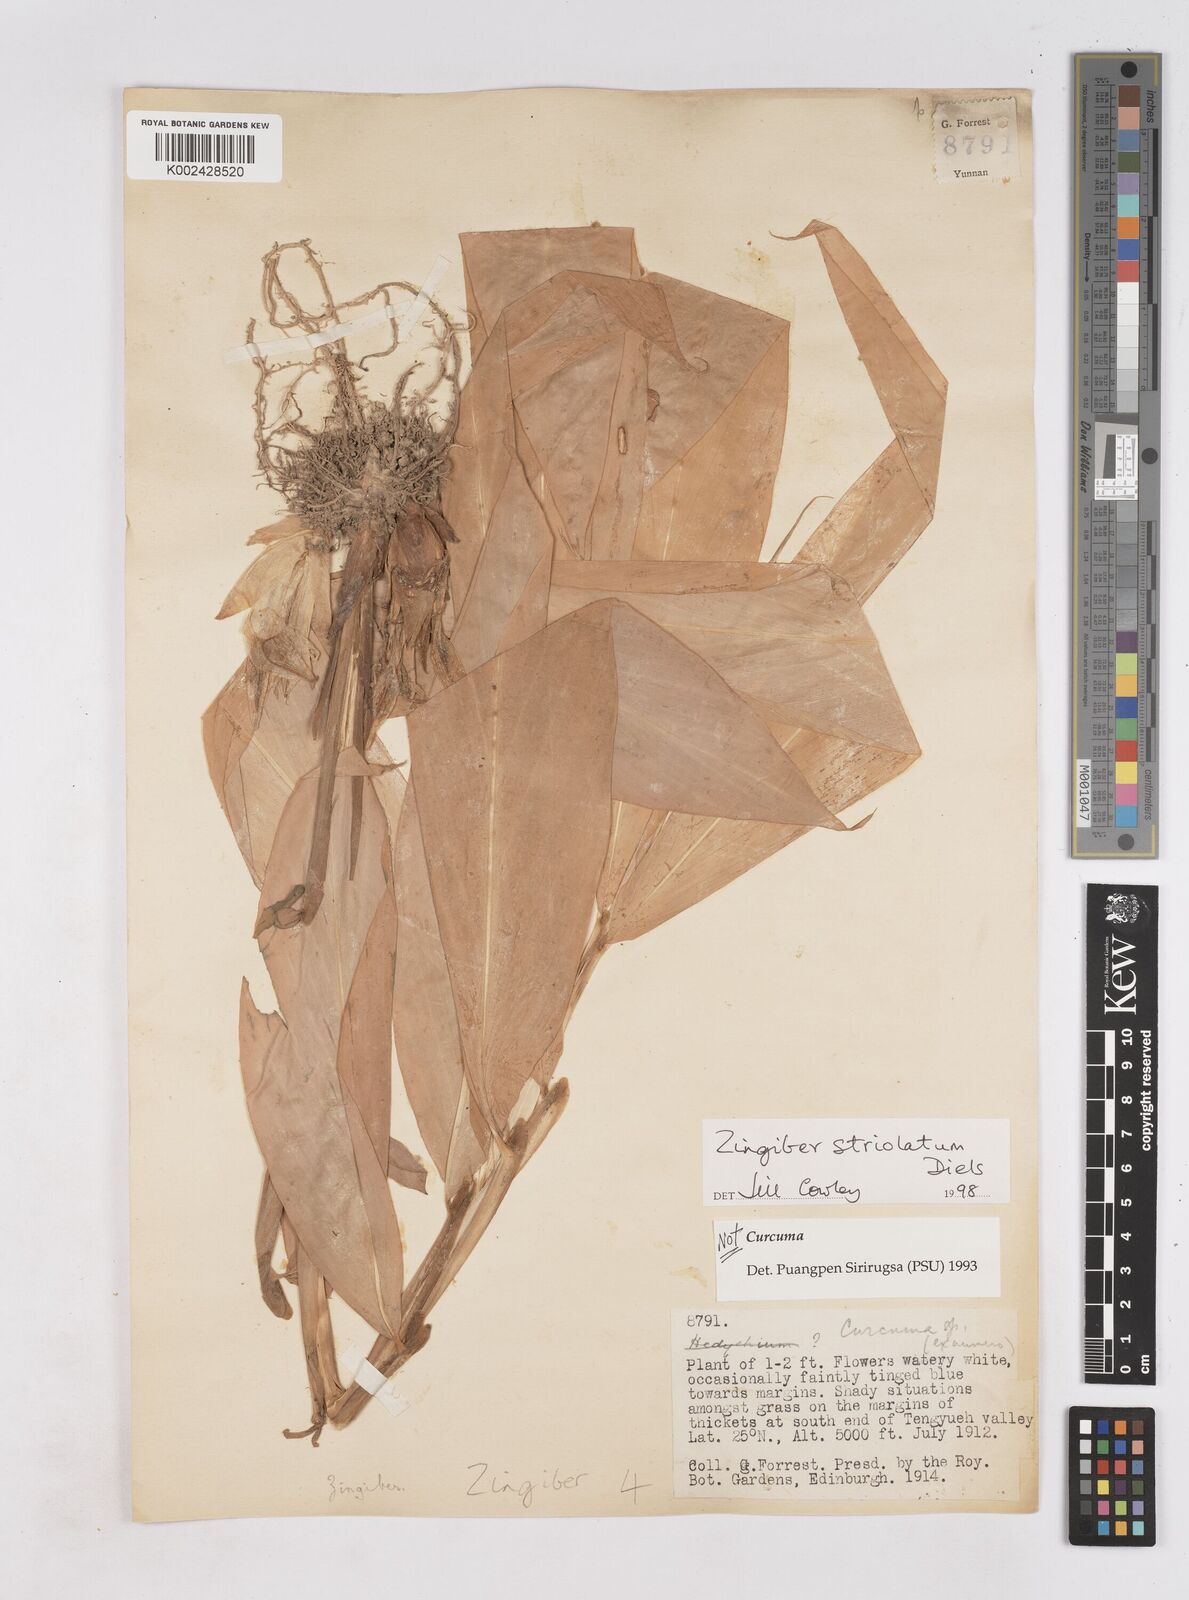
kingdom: Plantae
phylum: Tracheophyta
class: Liliopsida
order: Zingiberales
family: Zingiberaceae
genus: Zingiber
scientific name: Zingiber striolatum
